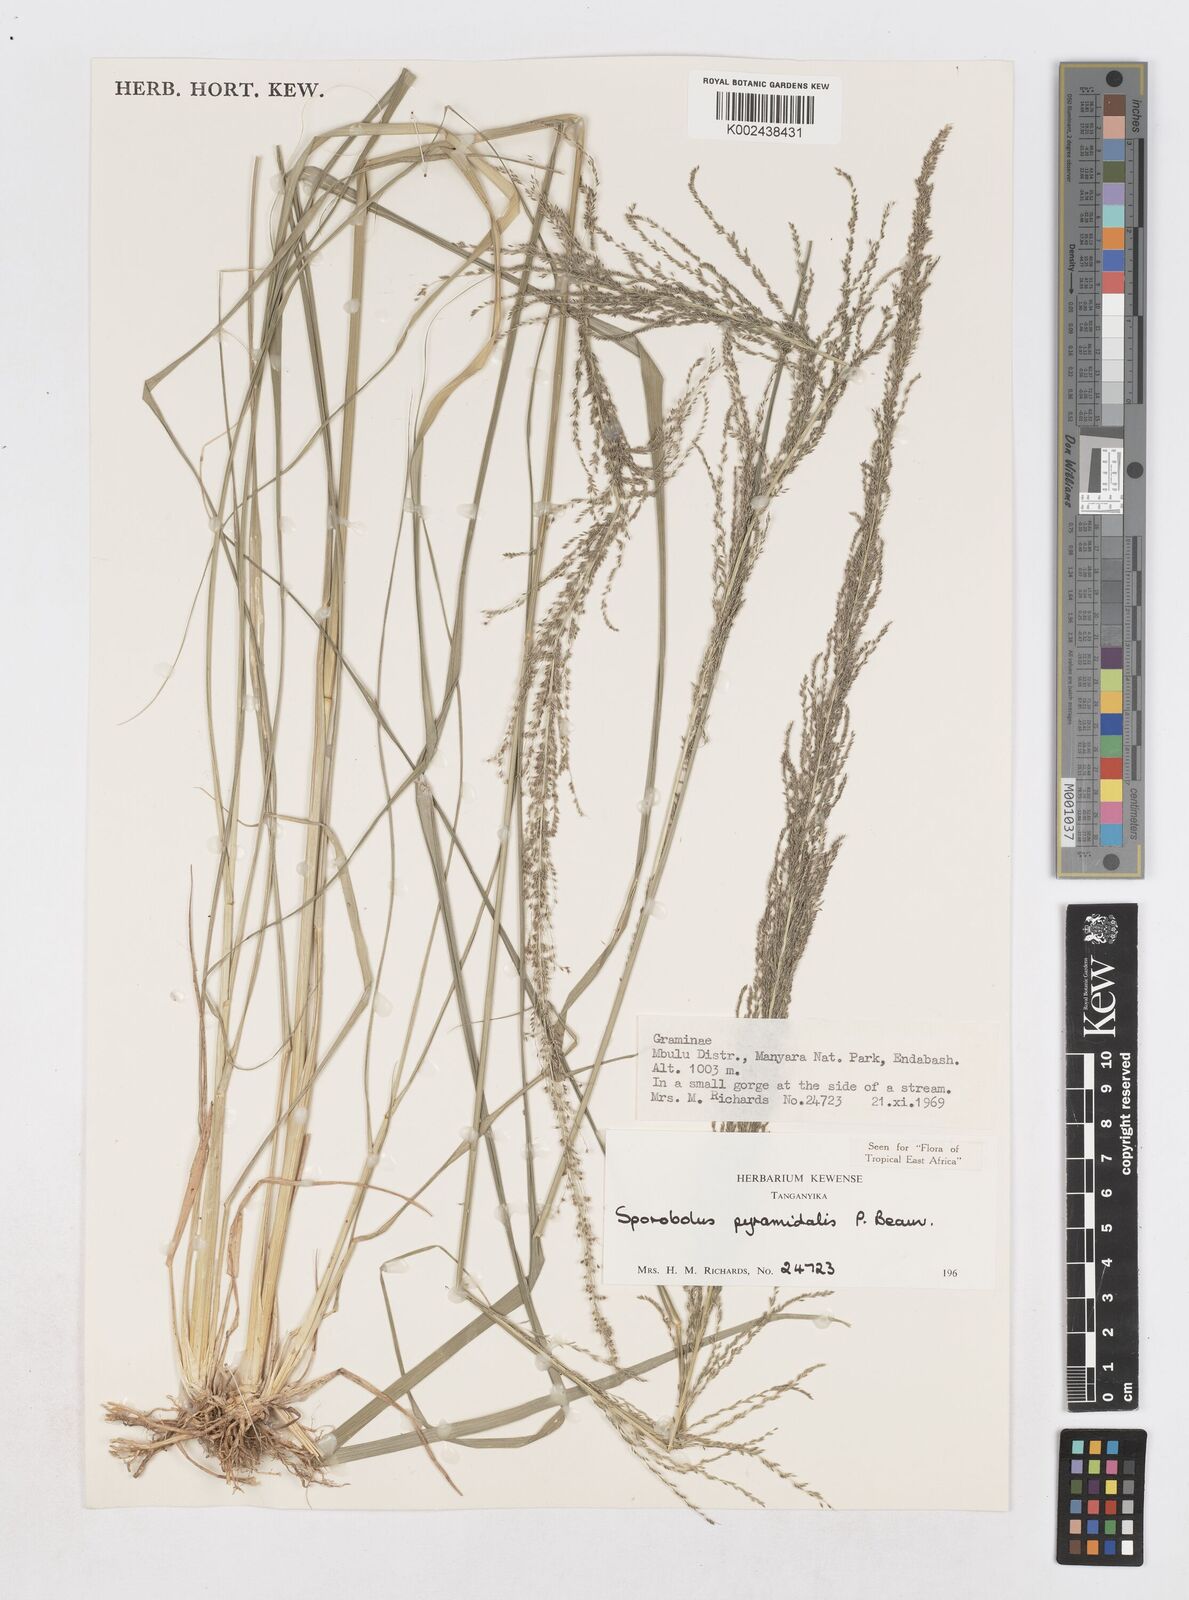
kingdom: Plantae
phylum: Tracheophyta
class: Liliopsida
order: Poales
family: Poaceae
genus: Sporobolus
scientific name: Sporobolus pyramidalis
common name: West indian dropseed
